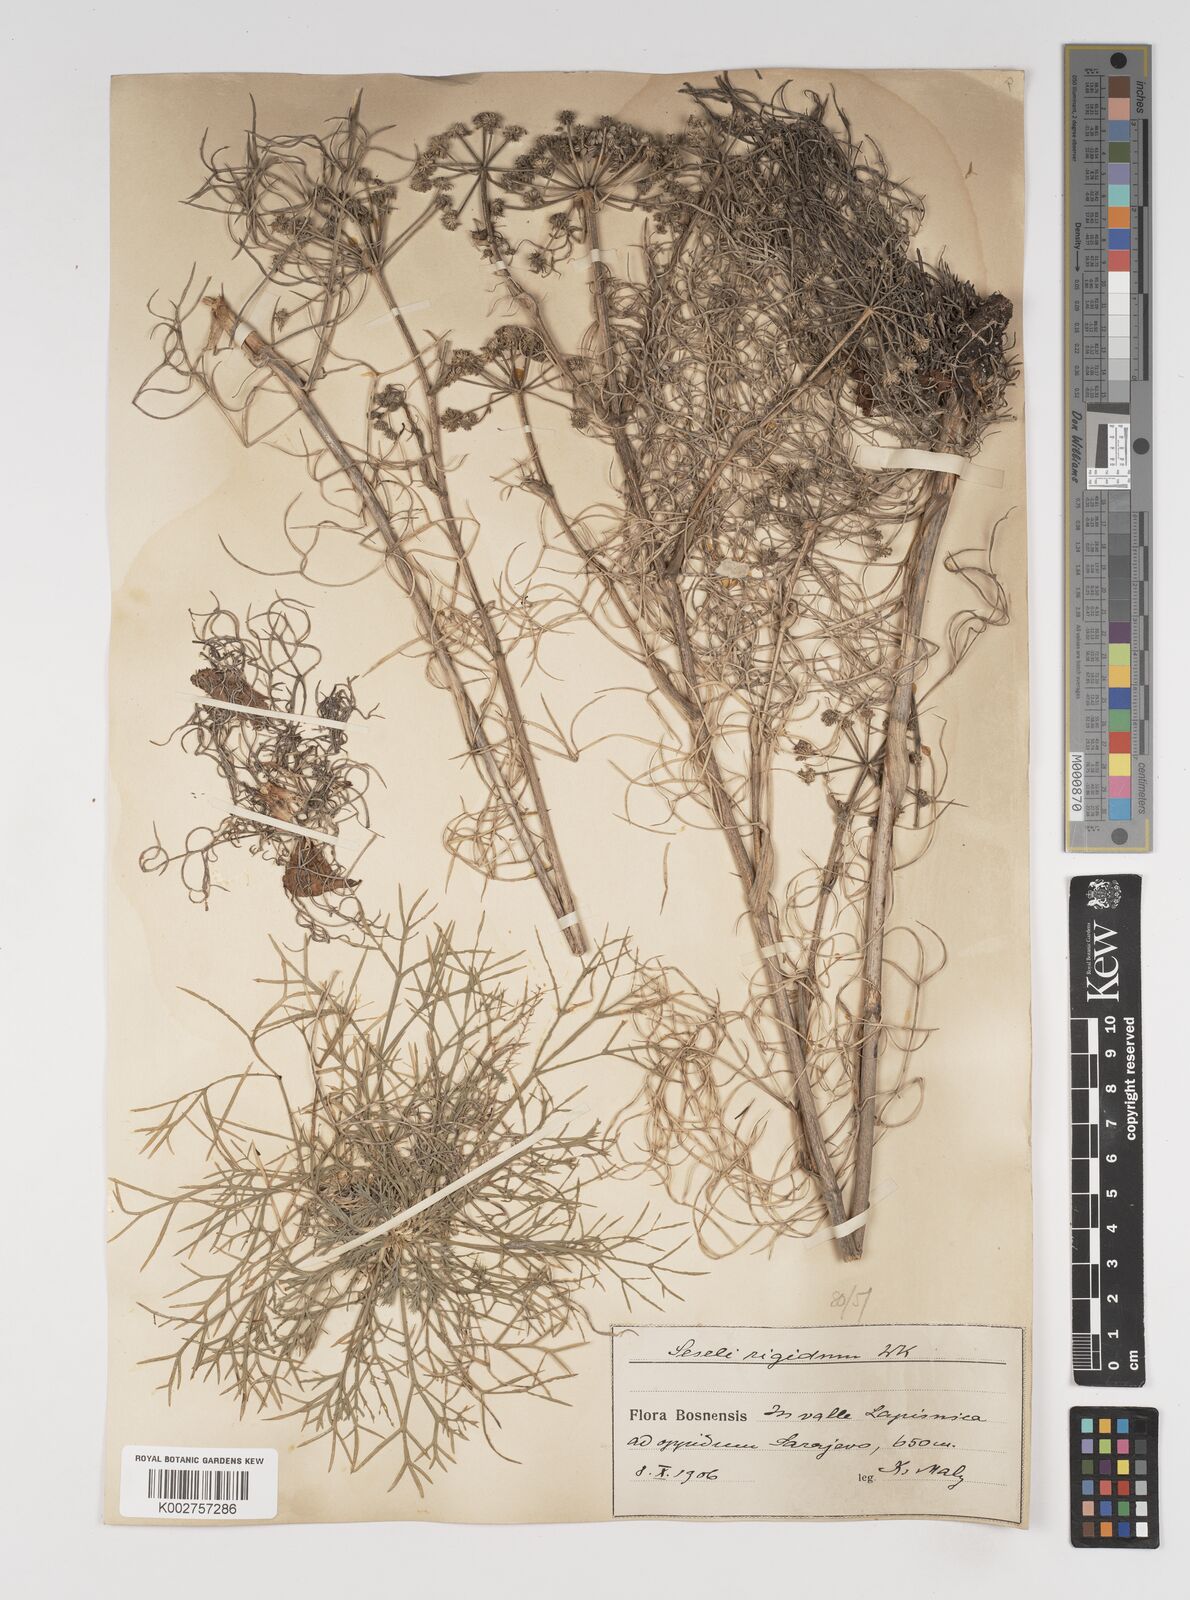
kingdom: Plantae
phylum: Tracheophyta
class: Magnoliopsida
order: Apiales
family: Apiaceae
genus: Seseli
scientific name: Seseli rigidum
